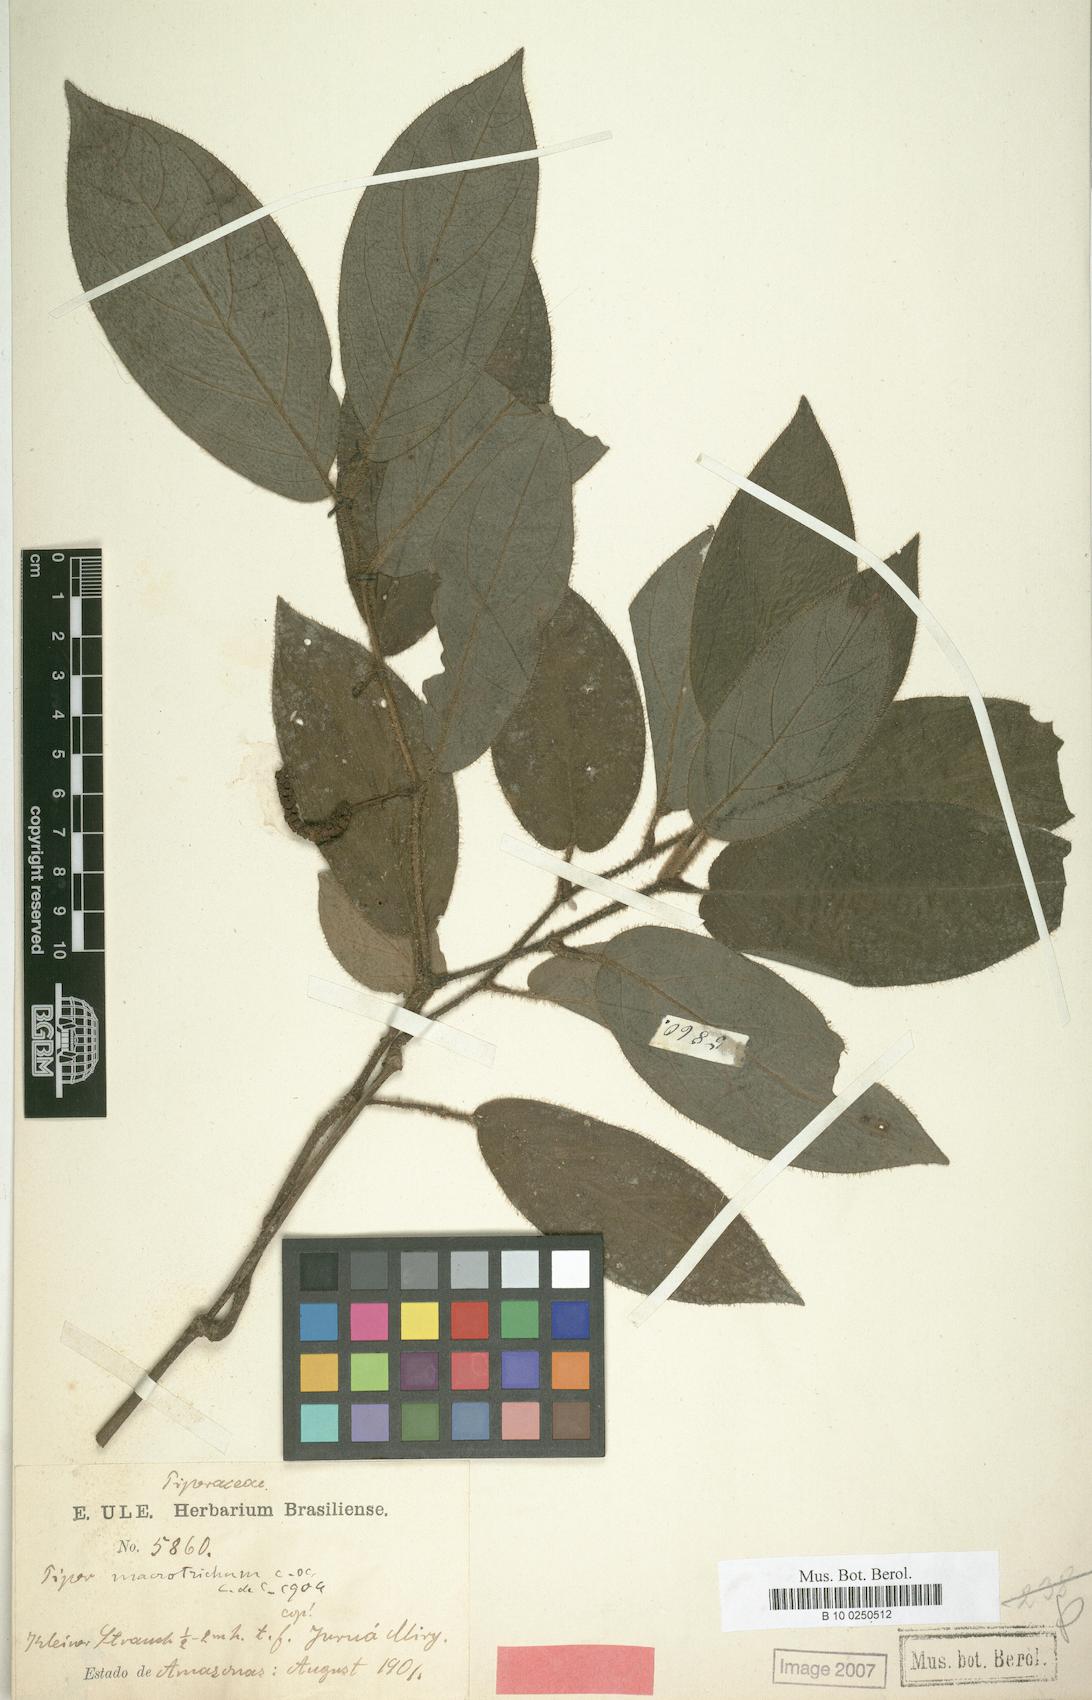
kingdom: Plantae
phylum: Tracheophyta
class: Magnoliopsida
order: Piperales
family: Piperaceae
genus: Piper
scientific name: Piper macrotrichum
